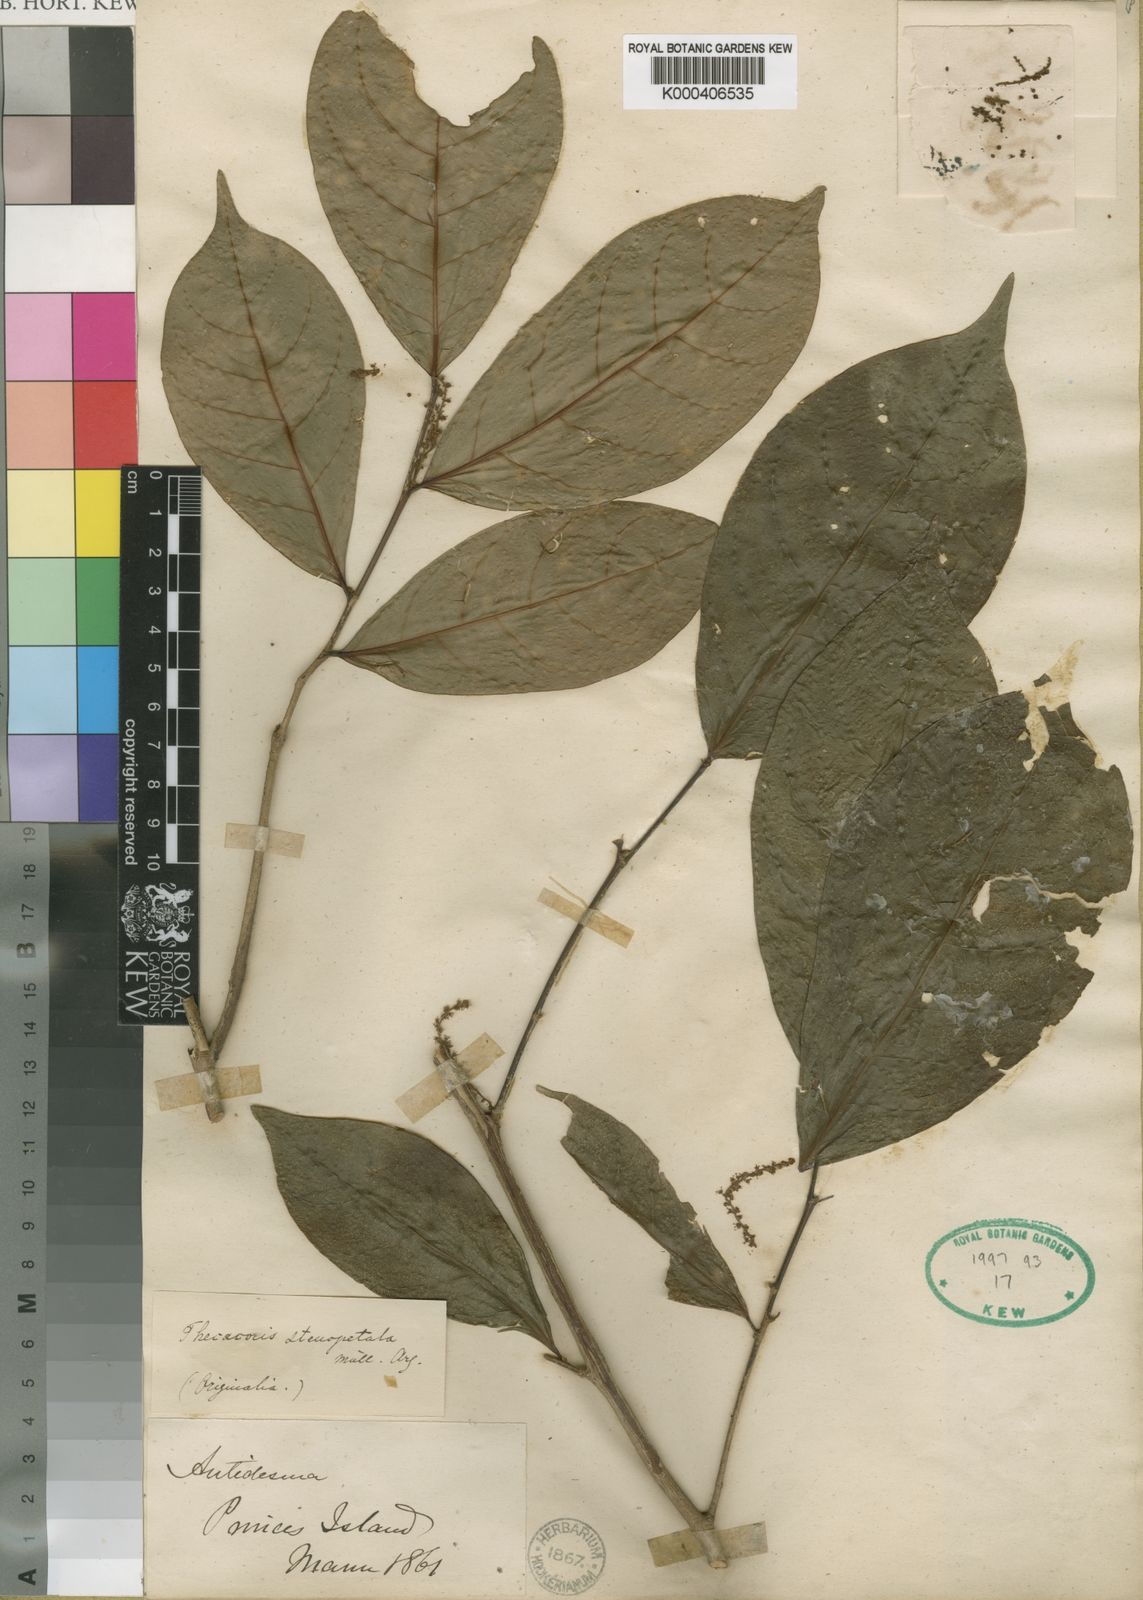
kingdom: Plantae
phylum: Tracheophyta
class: Magnoliopsida
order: Malpighiales
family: Phyllanthaceae
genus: Thecacoris
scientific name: Thecacoris
